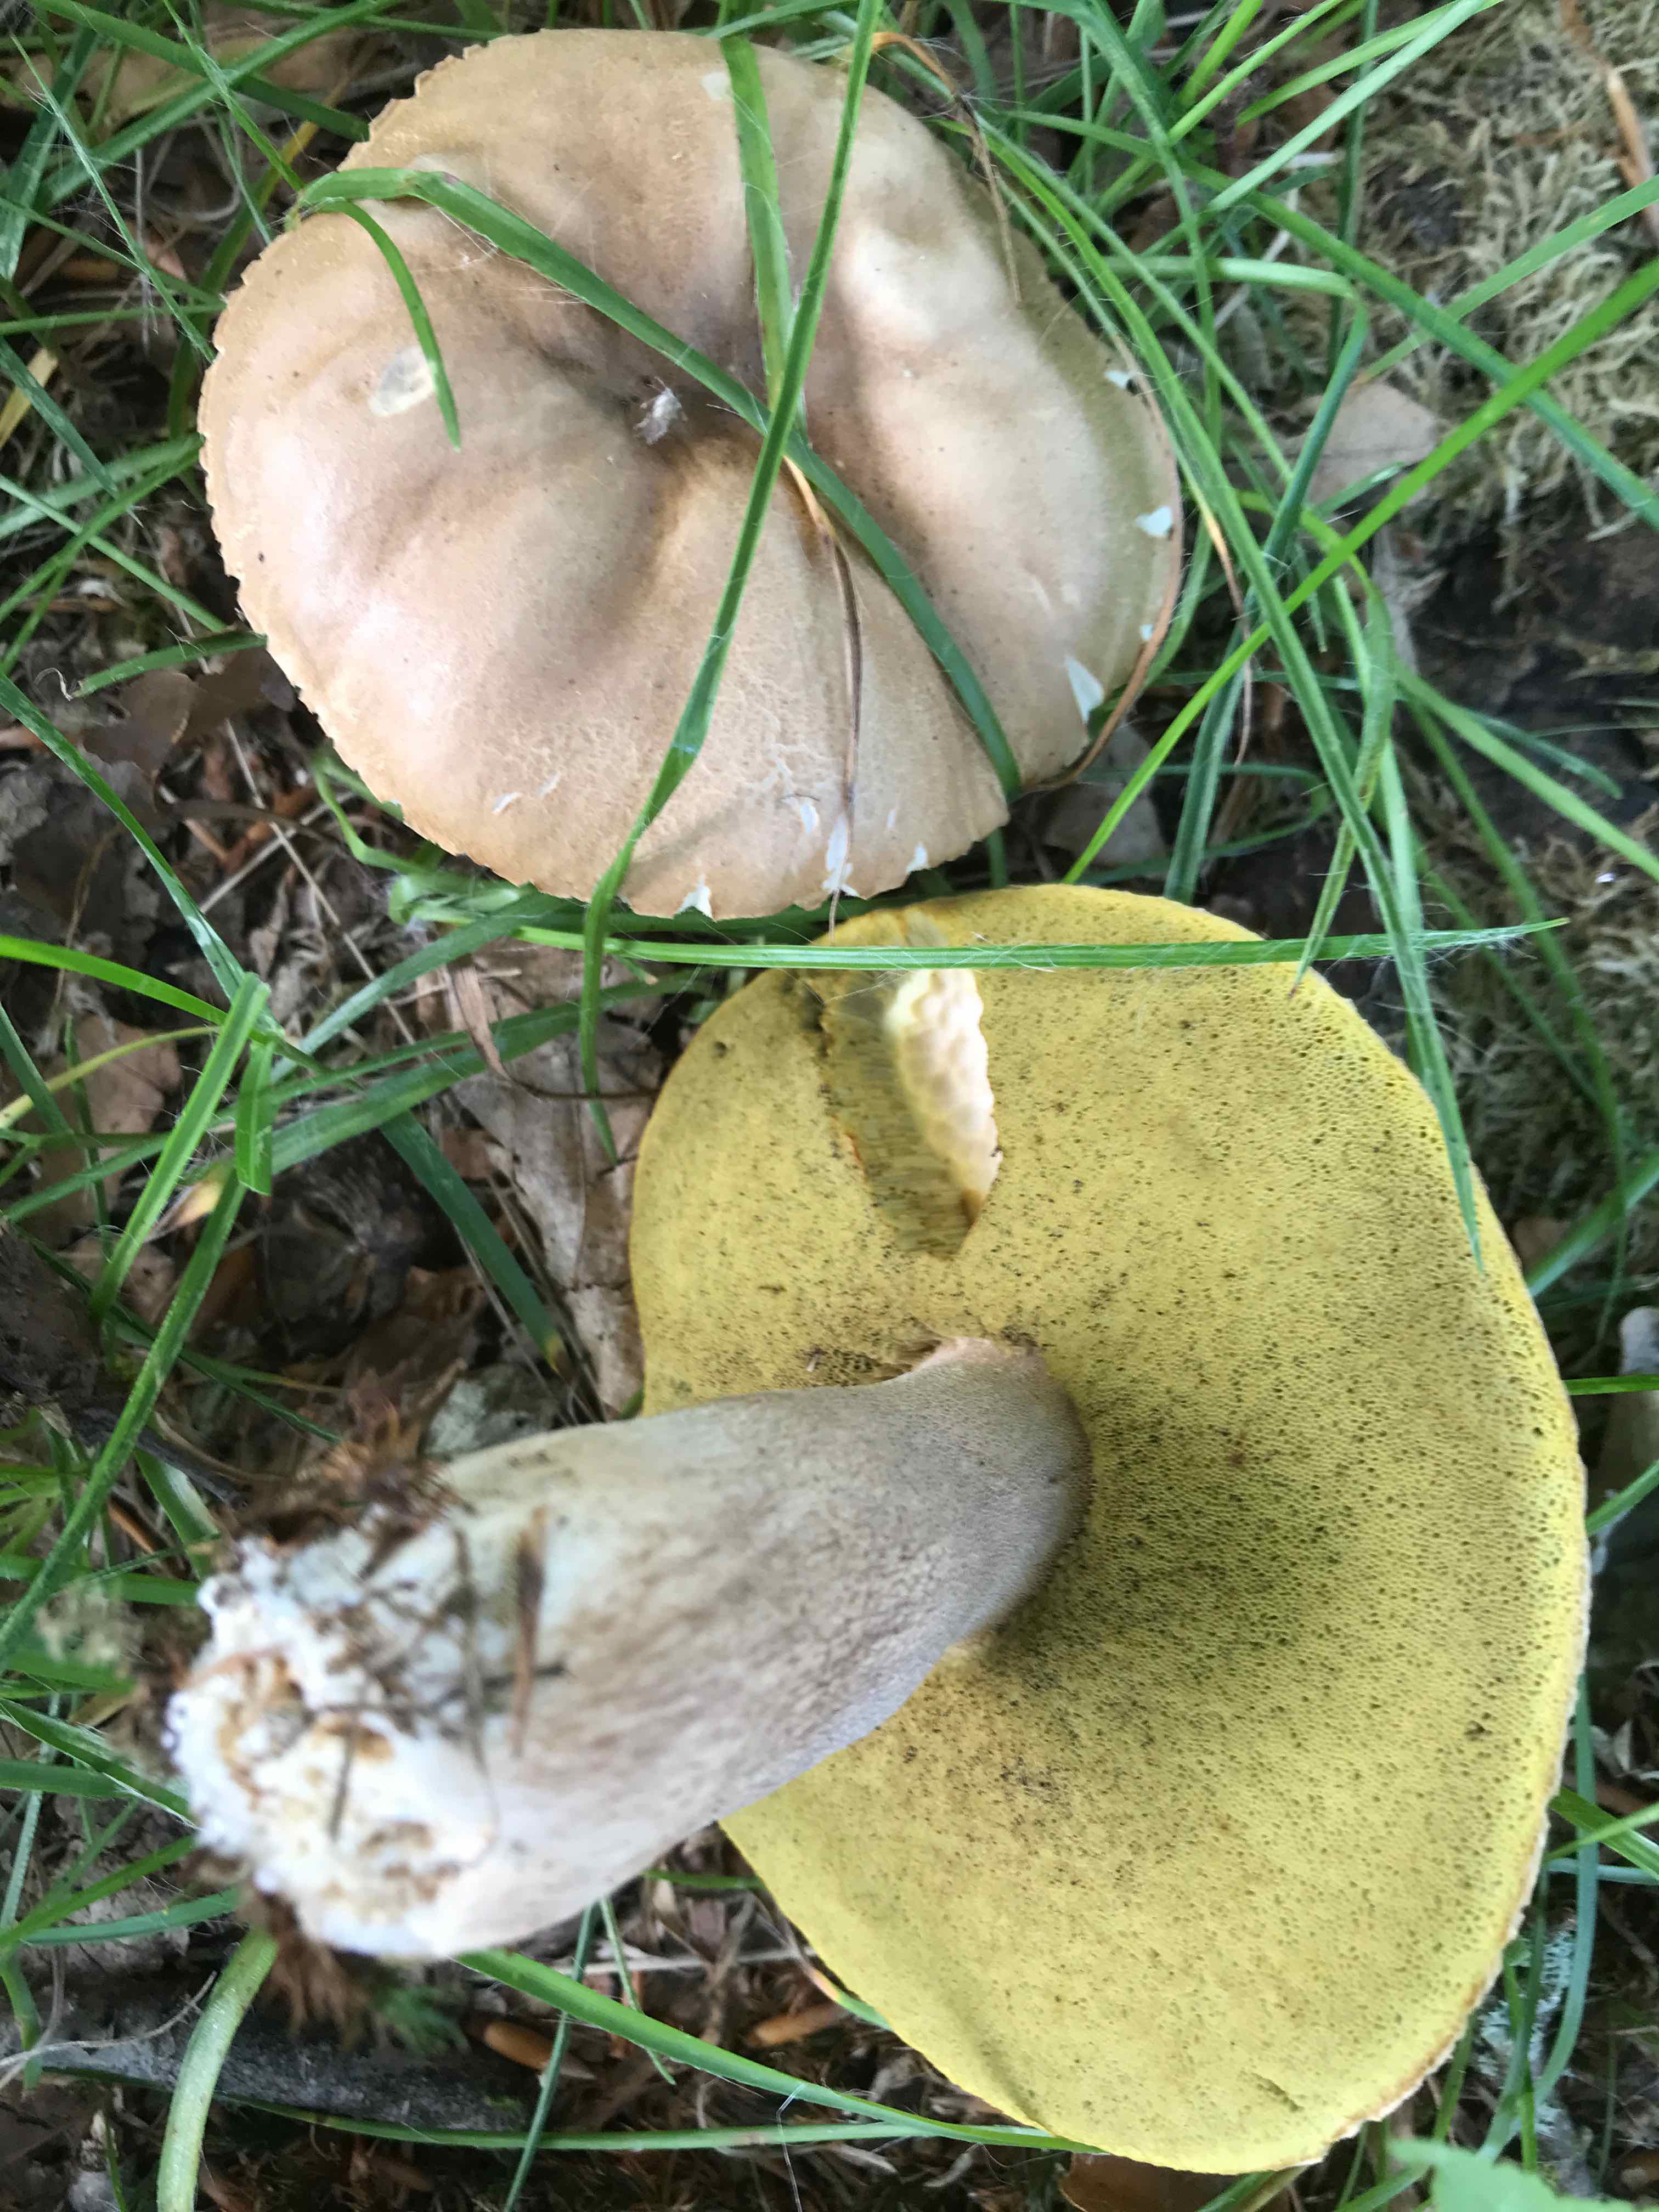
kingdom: Fungi
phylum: Basidiomycota
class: Agaricomycetes
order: Boletales
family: Boletaceae
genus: Boletus
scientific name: Boletus reticulatus
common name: sommer-rørhat
